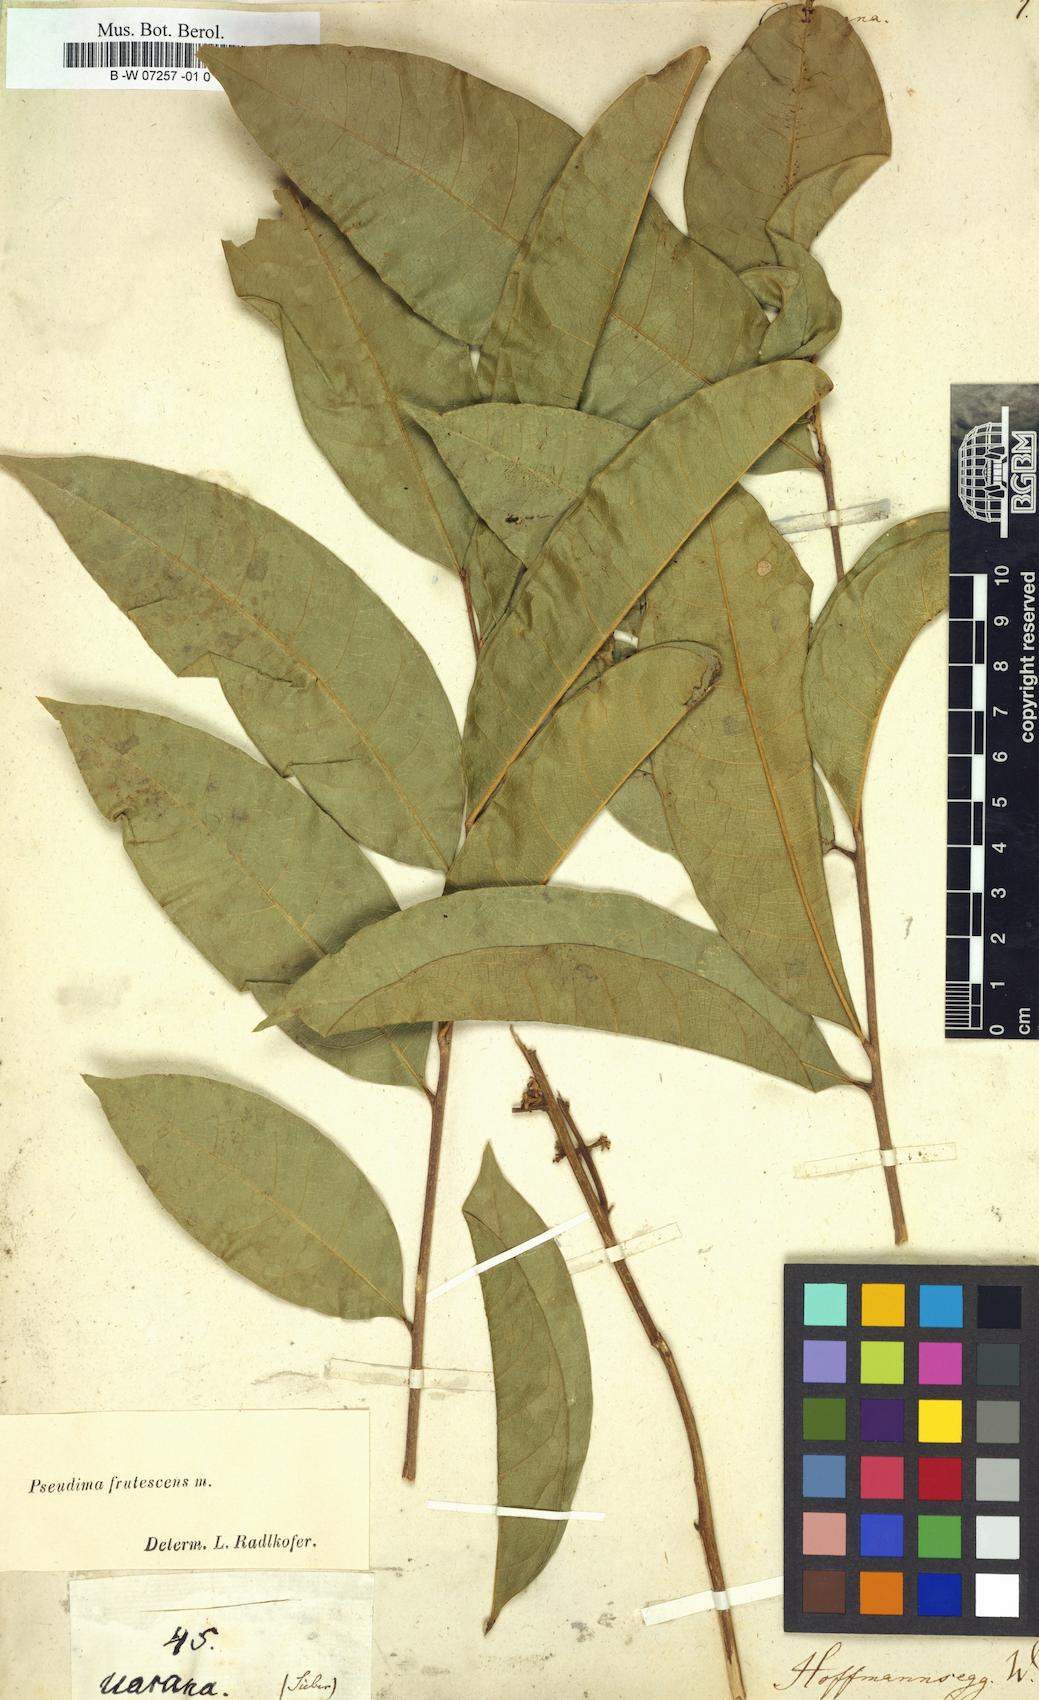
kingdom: Plantae
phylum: Tracheophyta
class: Magnoliopsida
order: Sapindales
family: Sapindaceae
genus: Cupania
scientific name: Cupania
